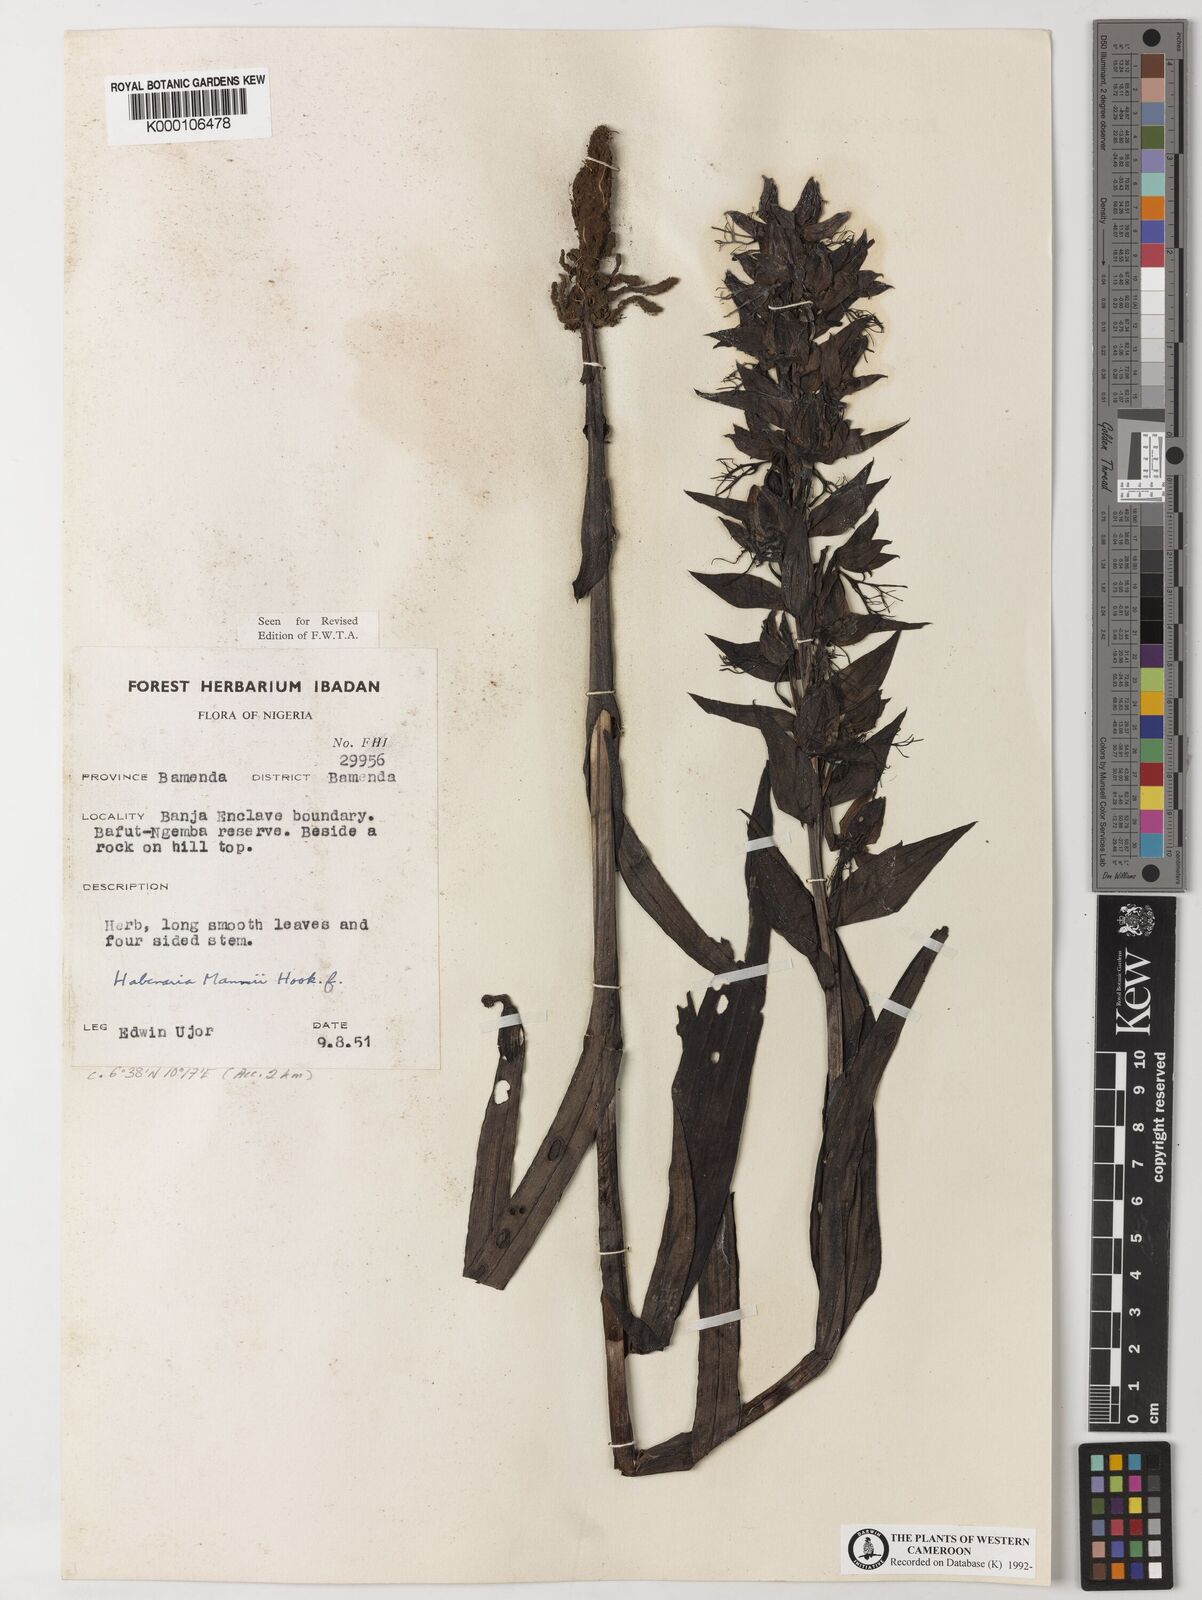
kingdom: Plantae
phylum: Tracheophyta
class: Liliopsida
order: Asparagales
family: Orchidaceae
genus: Habenaria
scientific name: Habenaria mannii
